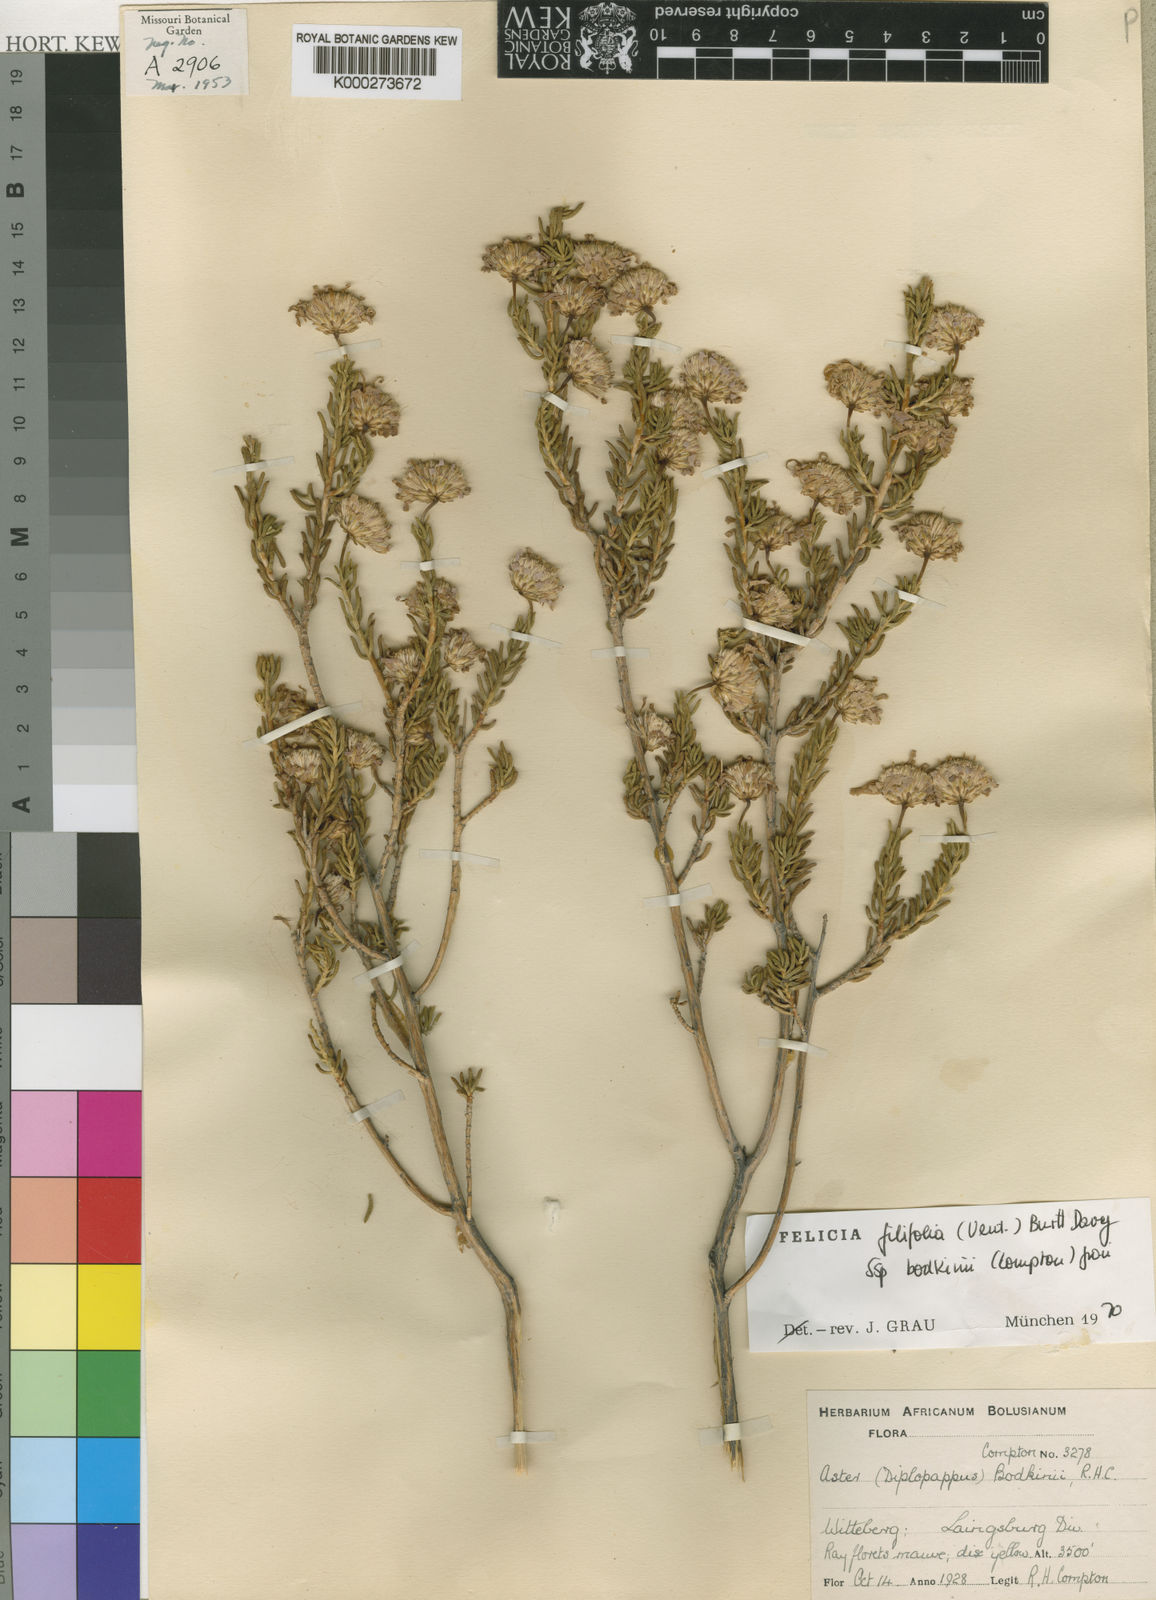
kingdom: Plantae
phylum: Tracheophyta
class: Magnoliopsida
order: Asterales
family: Asteraceae
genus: Felicia
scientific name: Felicia filifolia
